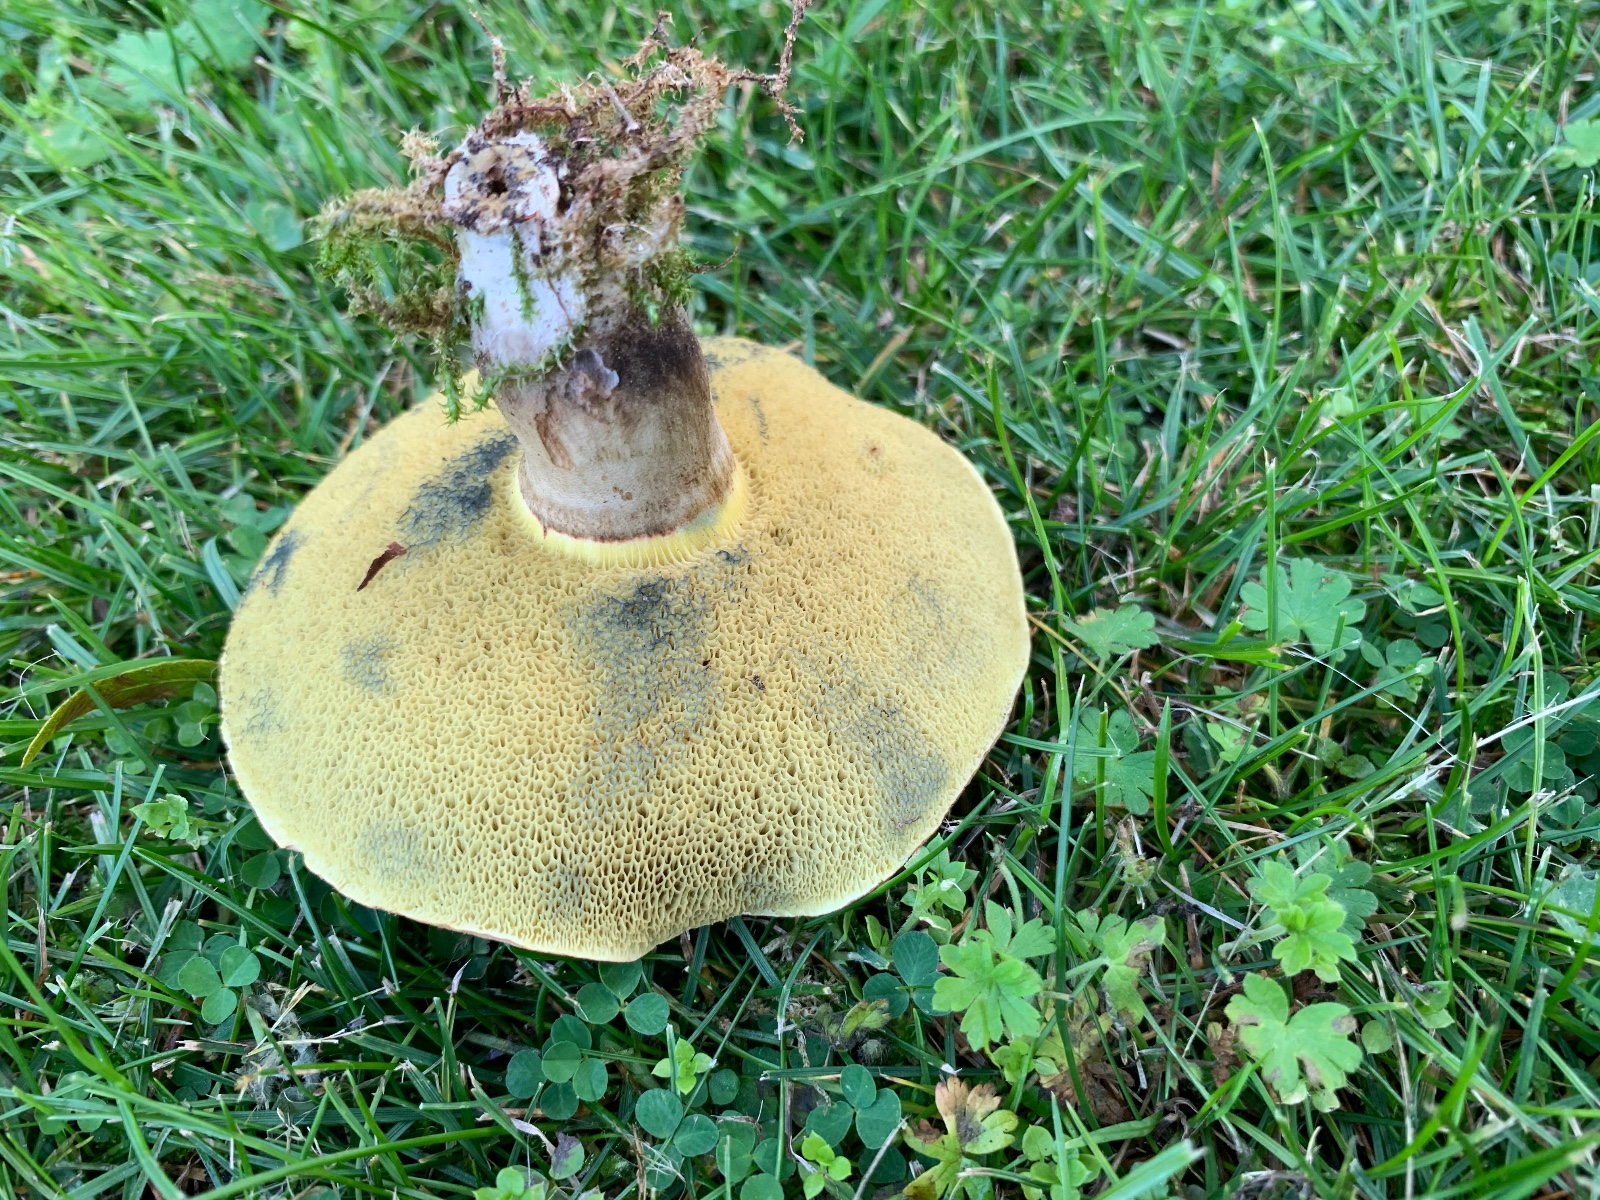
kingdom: Fungi
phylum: Basidiomycota
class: Agaricomycetes
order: Boletales
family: Boletaceae
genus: Xerocomellus
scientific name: Xerocomellus porosporus
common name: hvidsprukken rørhat
